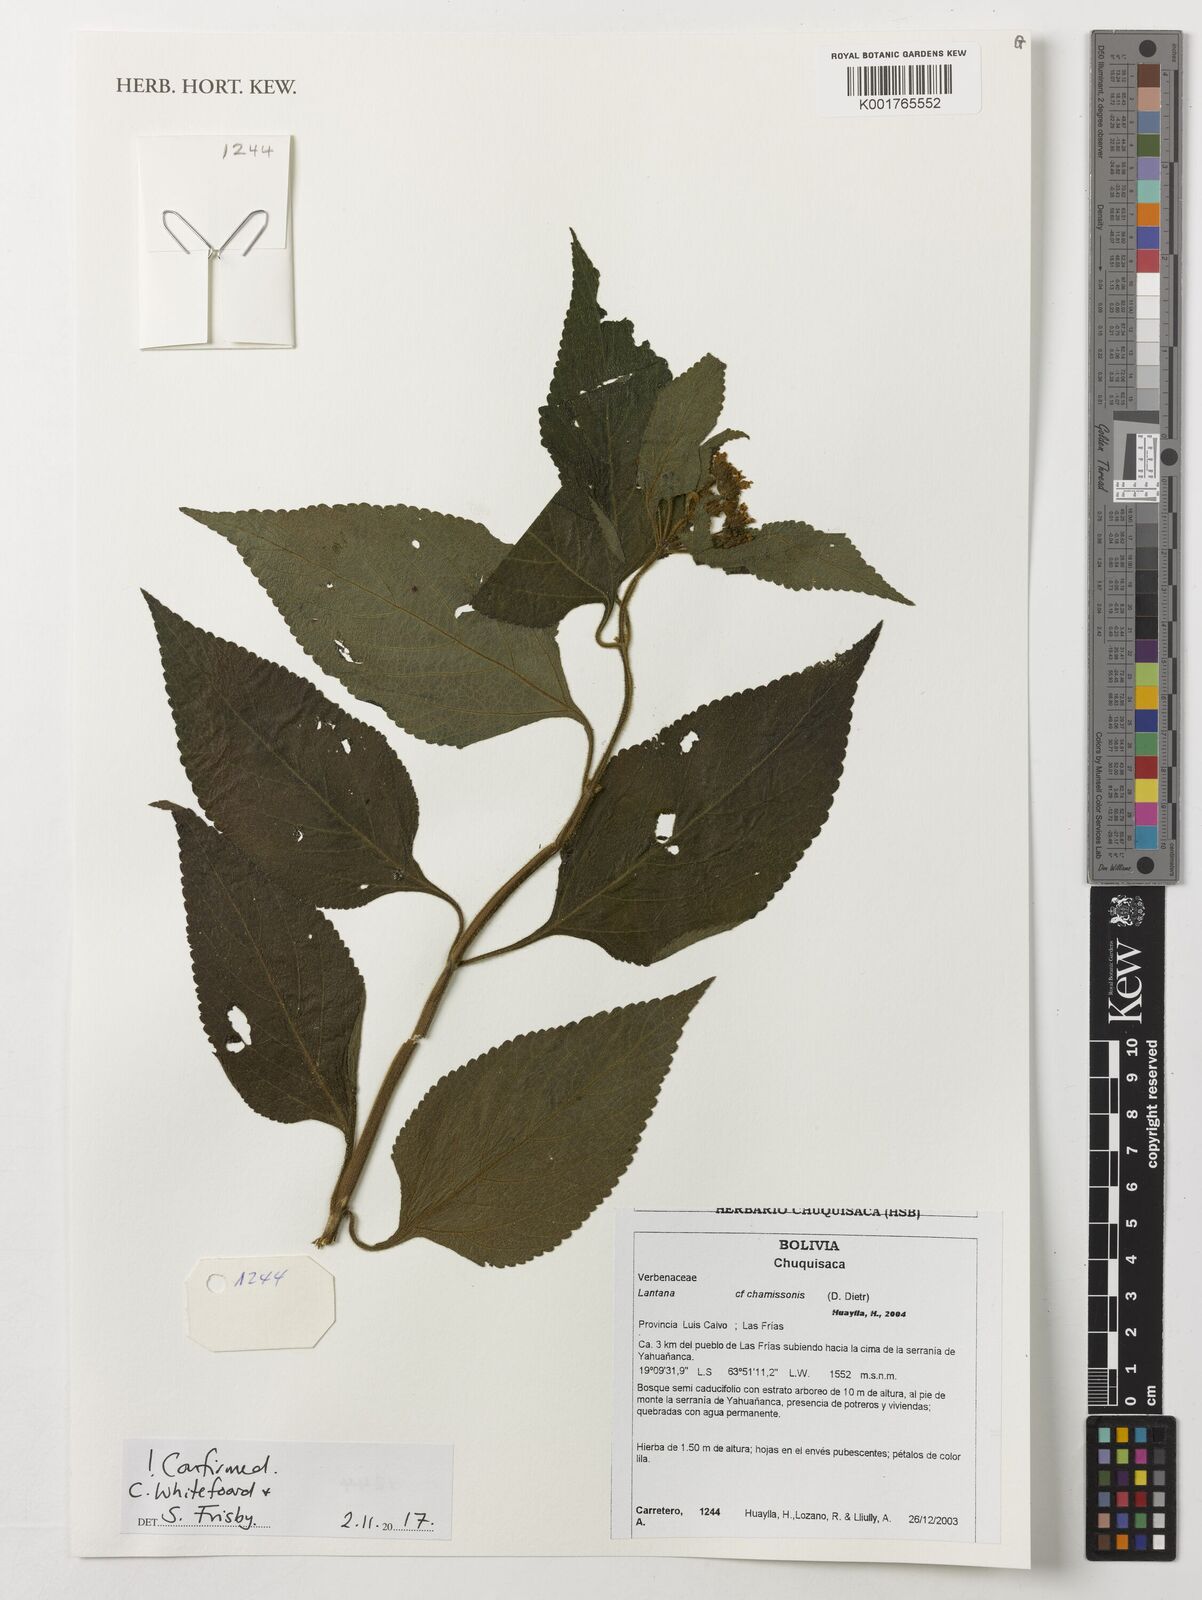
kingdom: Plantae
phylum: Tracheophyta
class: Magnoliopsida
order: Lamiales
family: Verbenaceae
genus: Lippia
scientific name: Lippia lippioides
